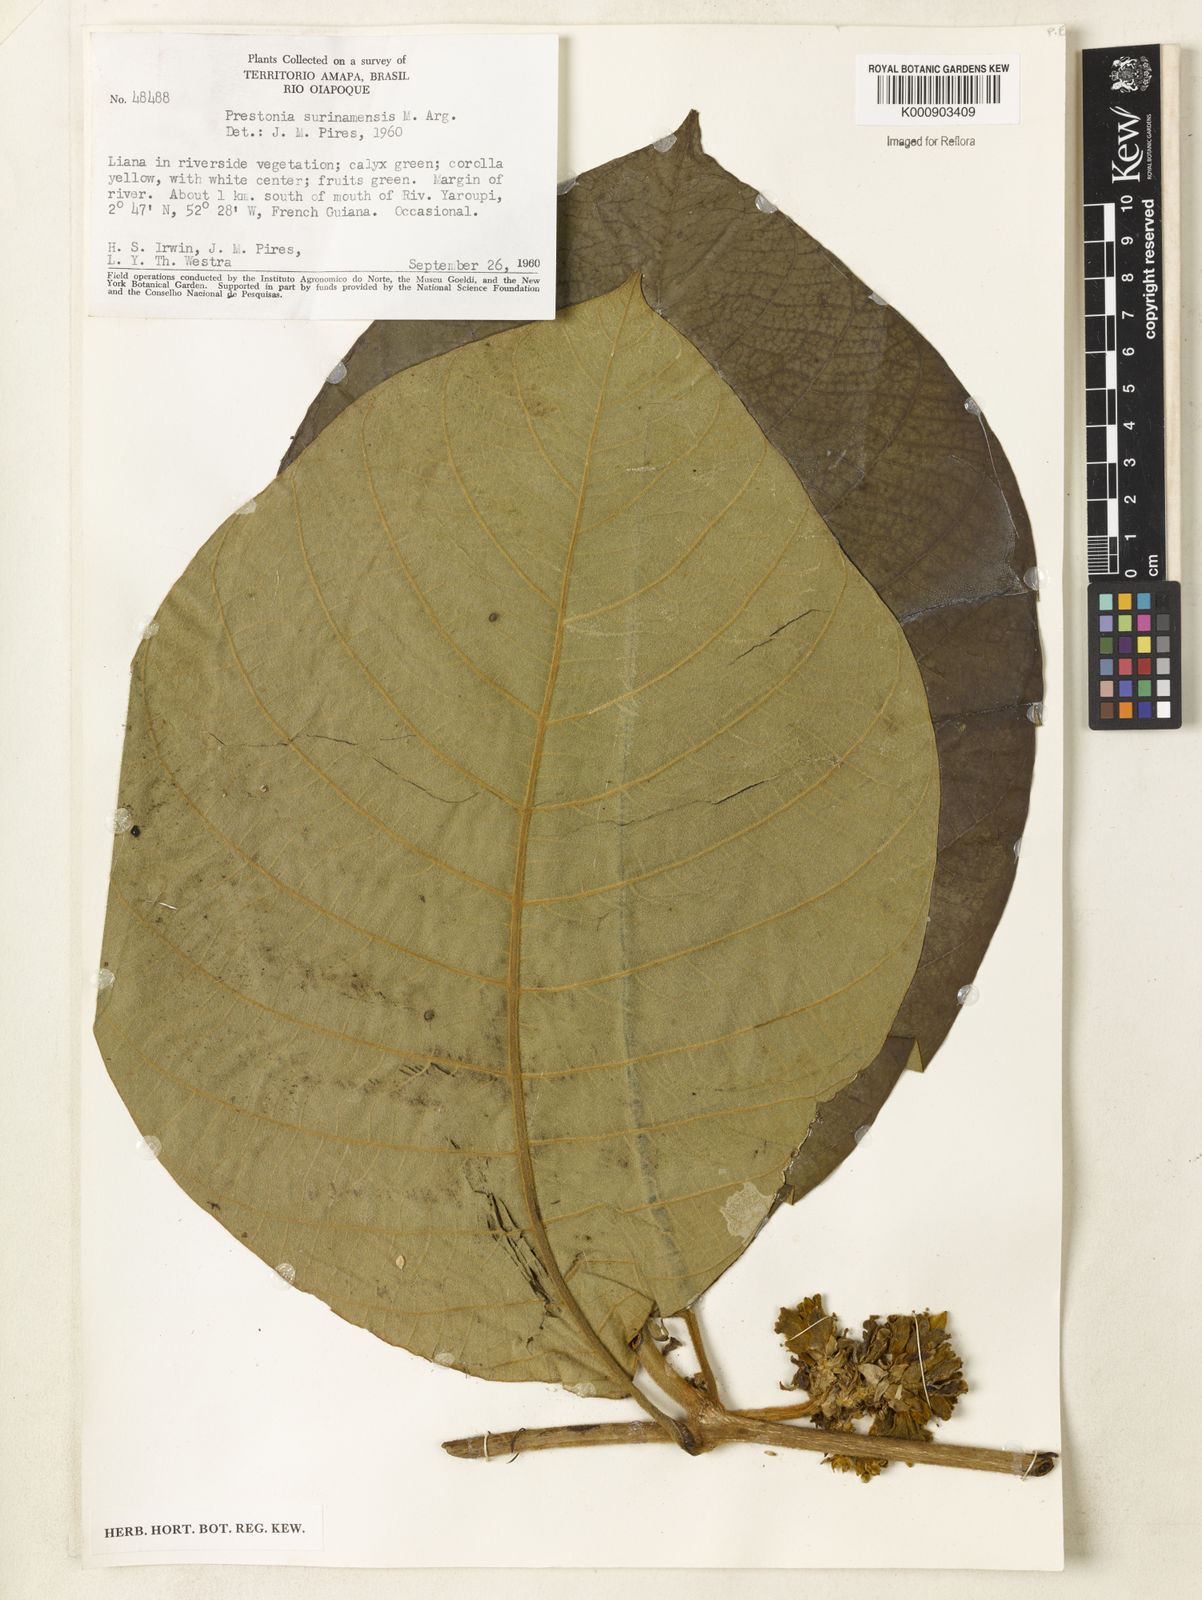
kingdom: Plantae
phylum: Tracheophyta
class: Magnoliopsida
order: Gentianales
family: Apocynaceae
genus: Prestonia
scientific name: Prestonia
